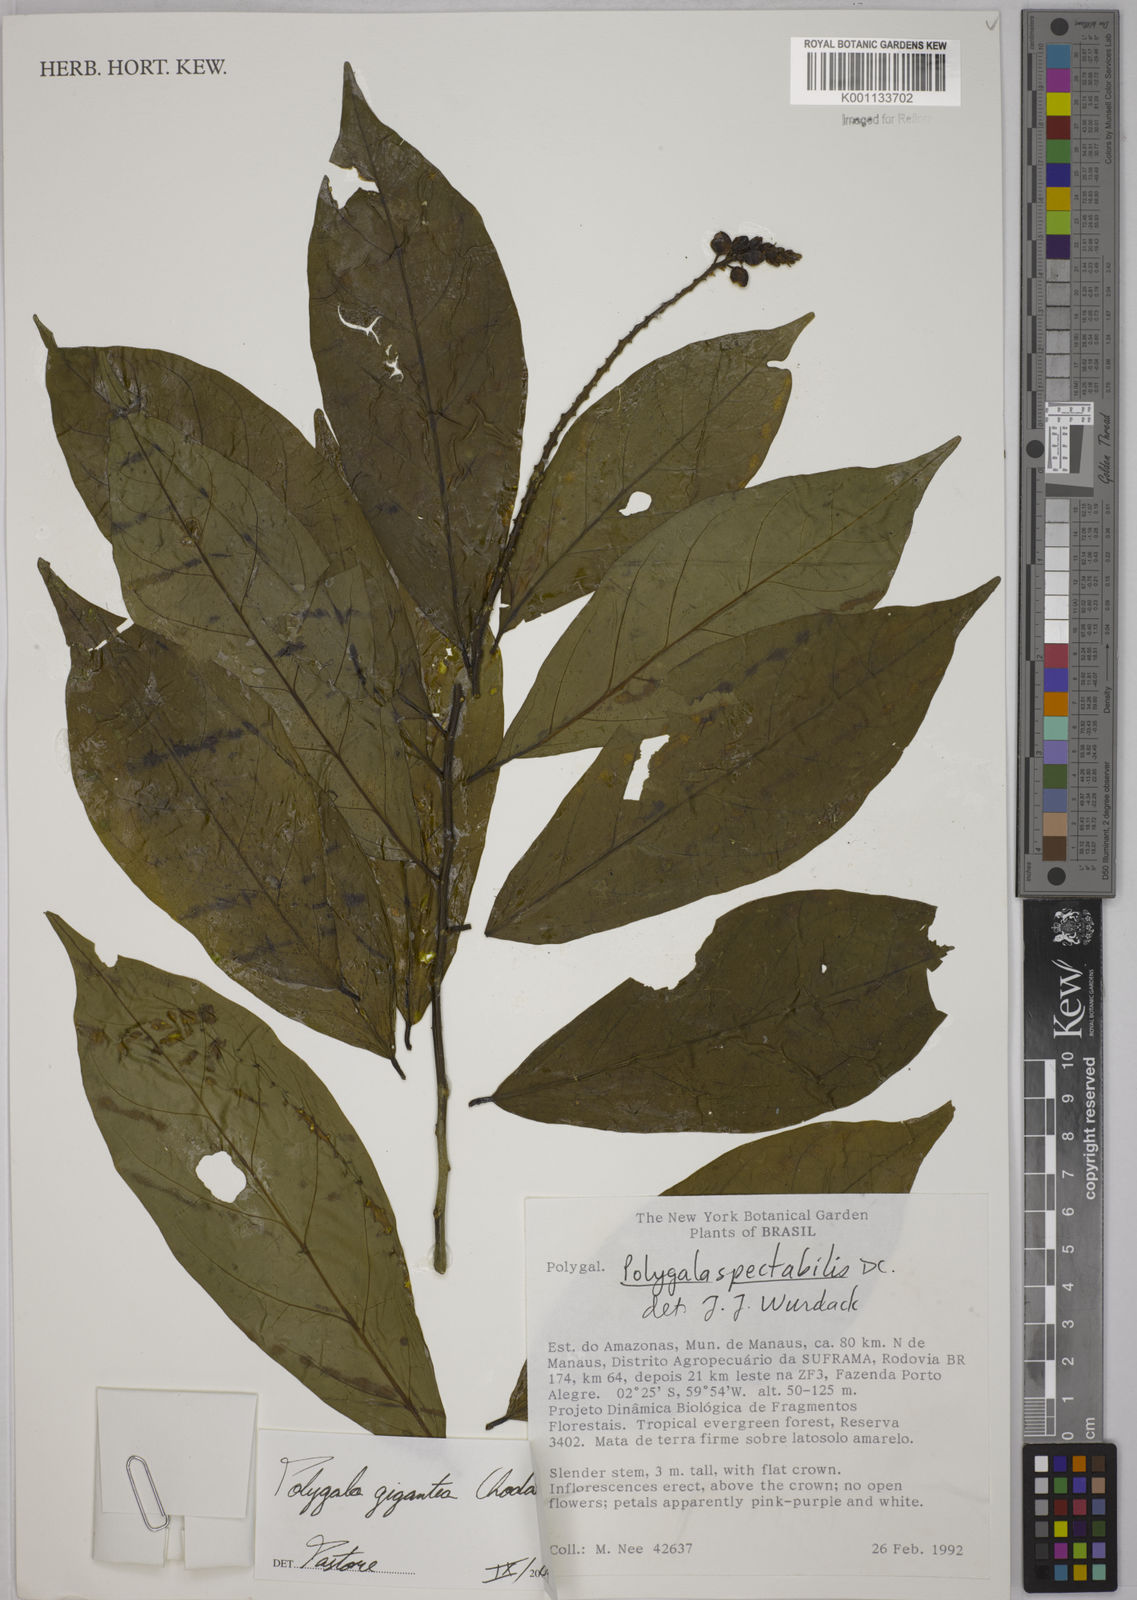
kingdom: Plantae
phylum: Tracheophyta
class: Magnoliopsida
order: Fabales
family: Polygalaceae
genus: Caamembeca
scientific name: Caamembeca gigantea
